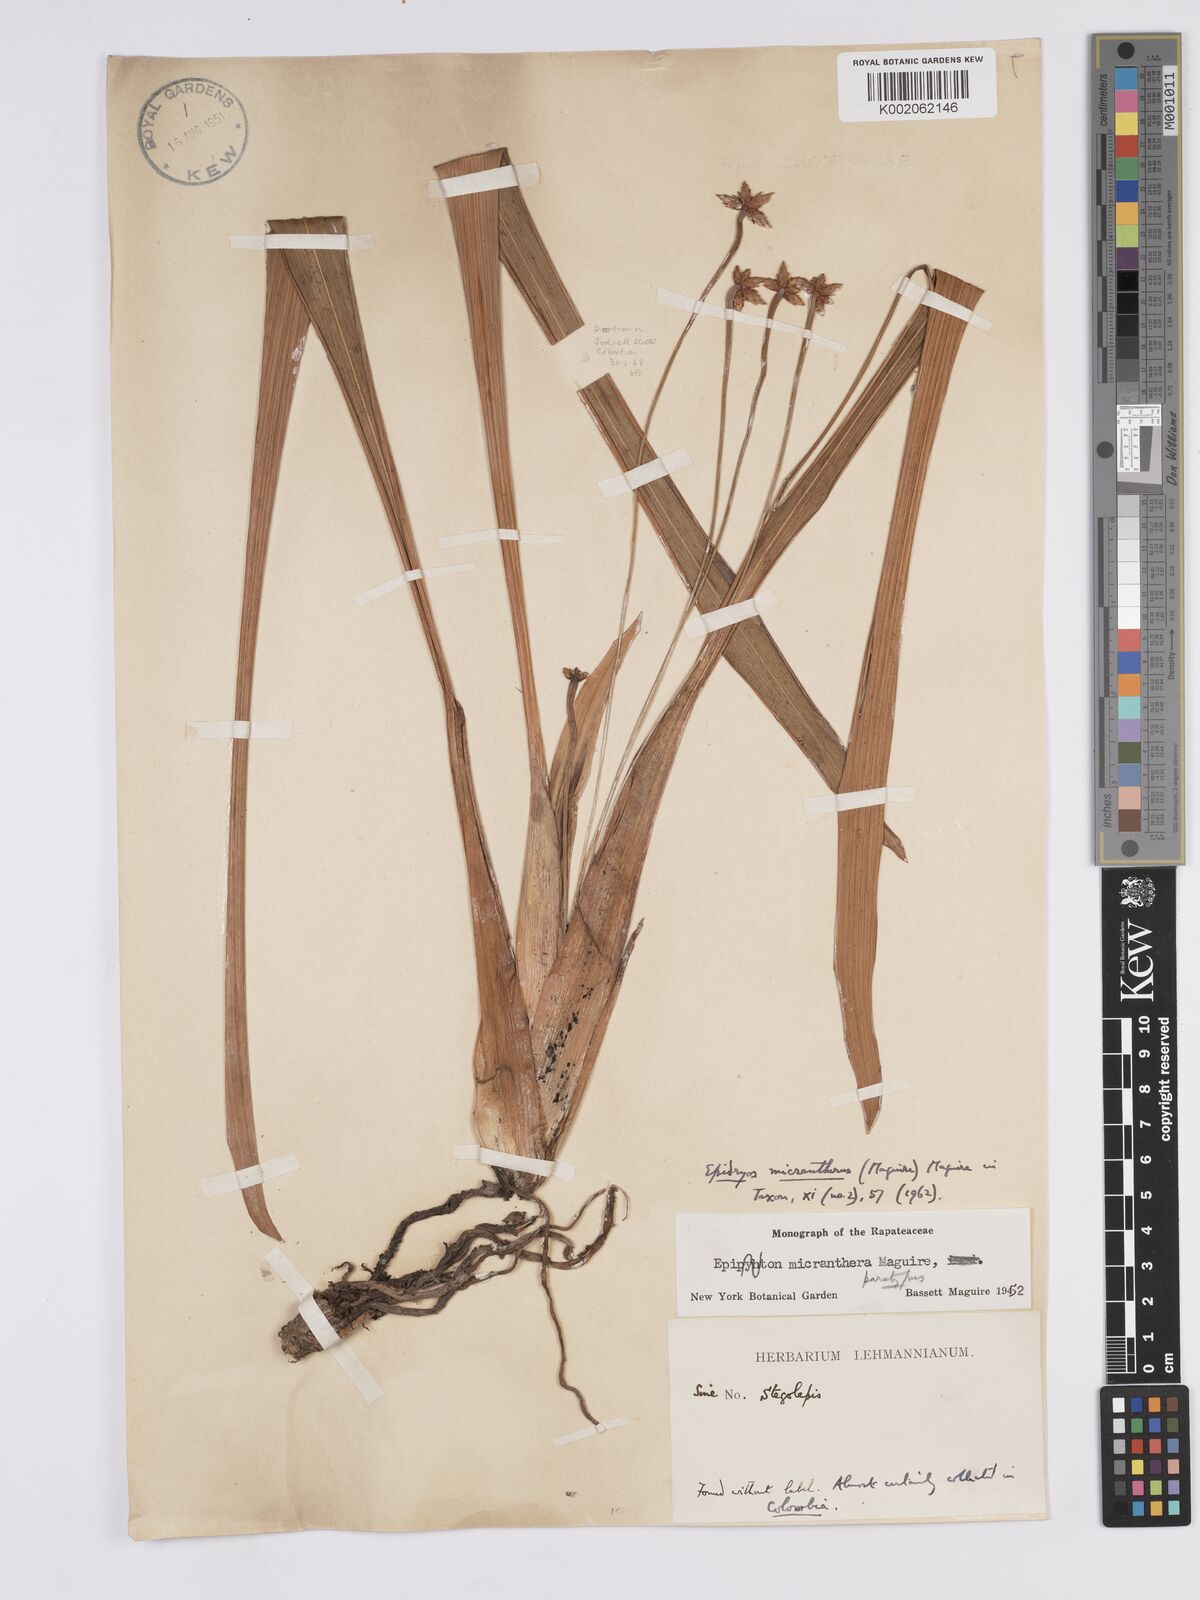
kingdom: Plantae
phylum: Tracheophyta
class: Liliopsida
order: Poales
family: Rapateaceae
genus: Epidryos
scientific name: Epidryos micrantherus
